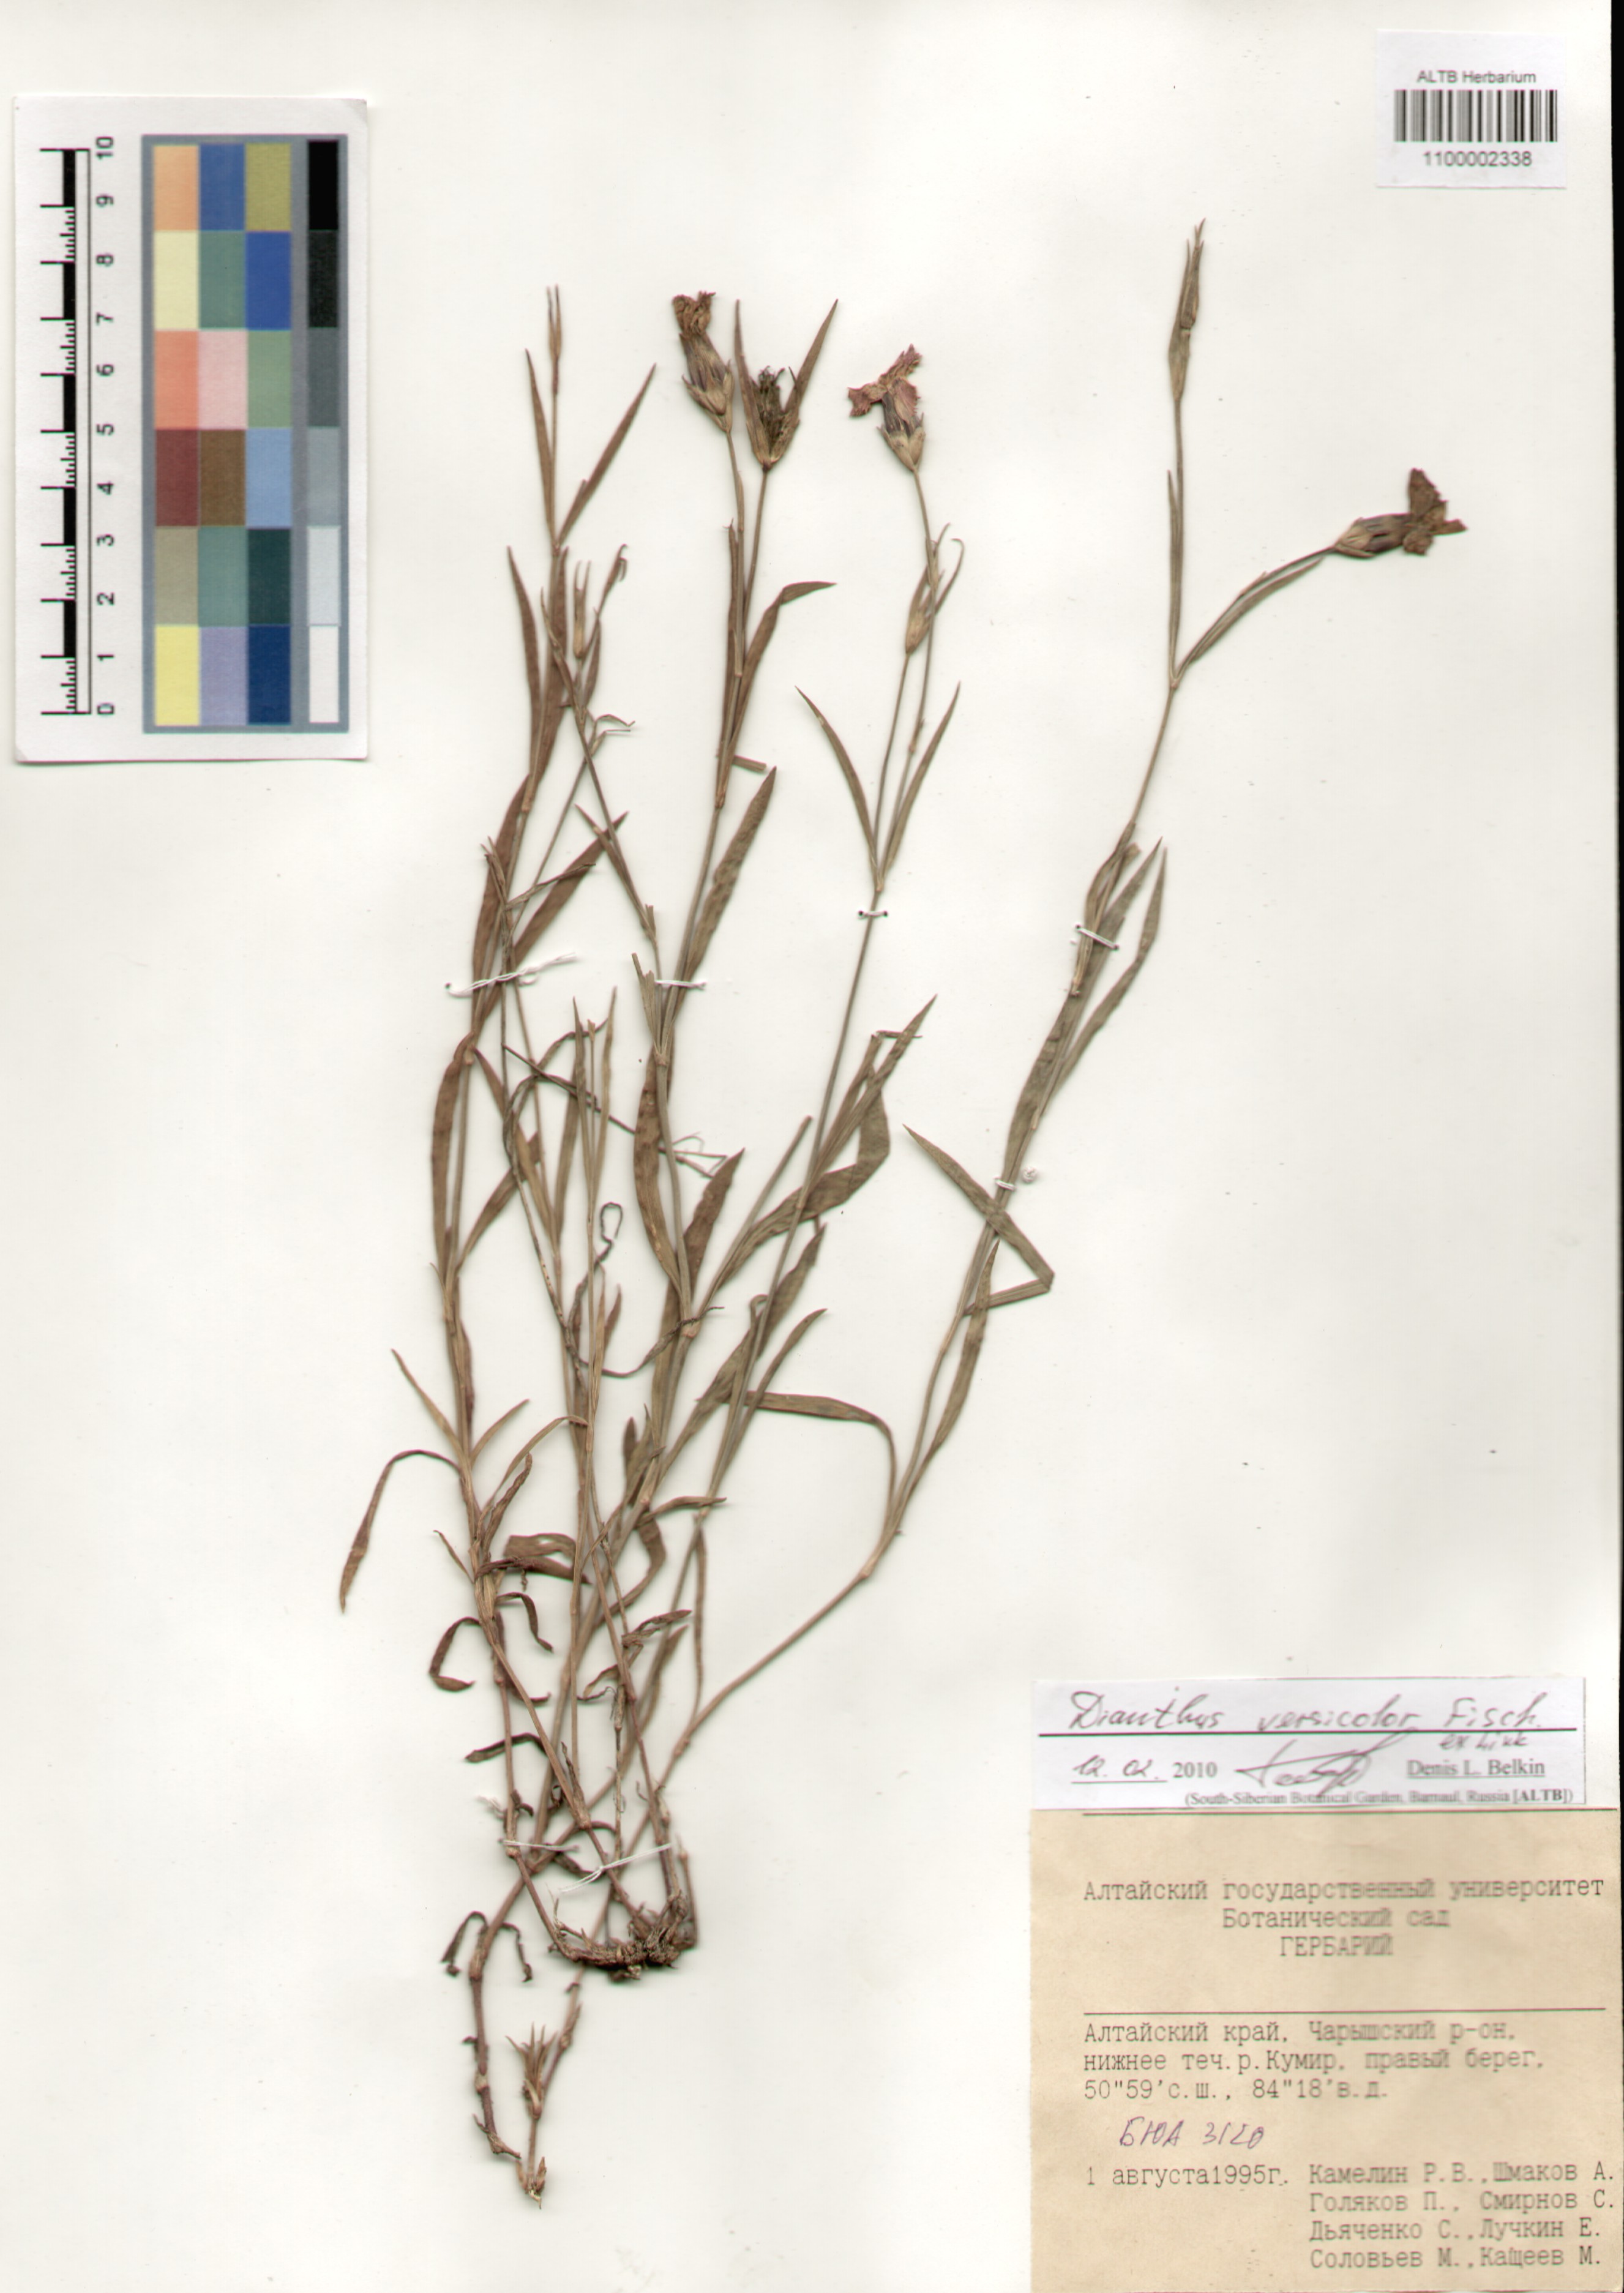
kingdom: Plantae
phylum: Tracheophyta
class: Magnoliopsida
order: Caryophyllales
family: Caryophyllaceae
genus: Dianthus
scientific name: Dianthus chinensis
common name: Rainbow pink
